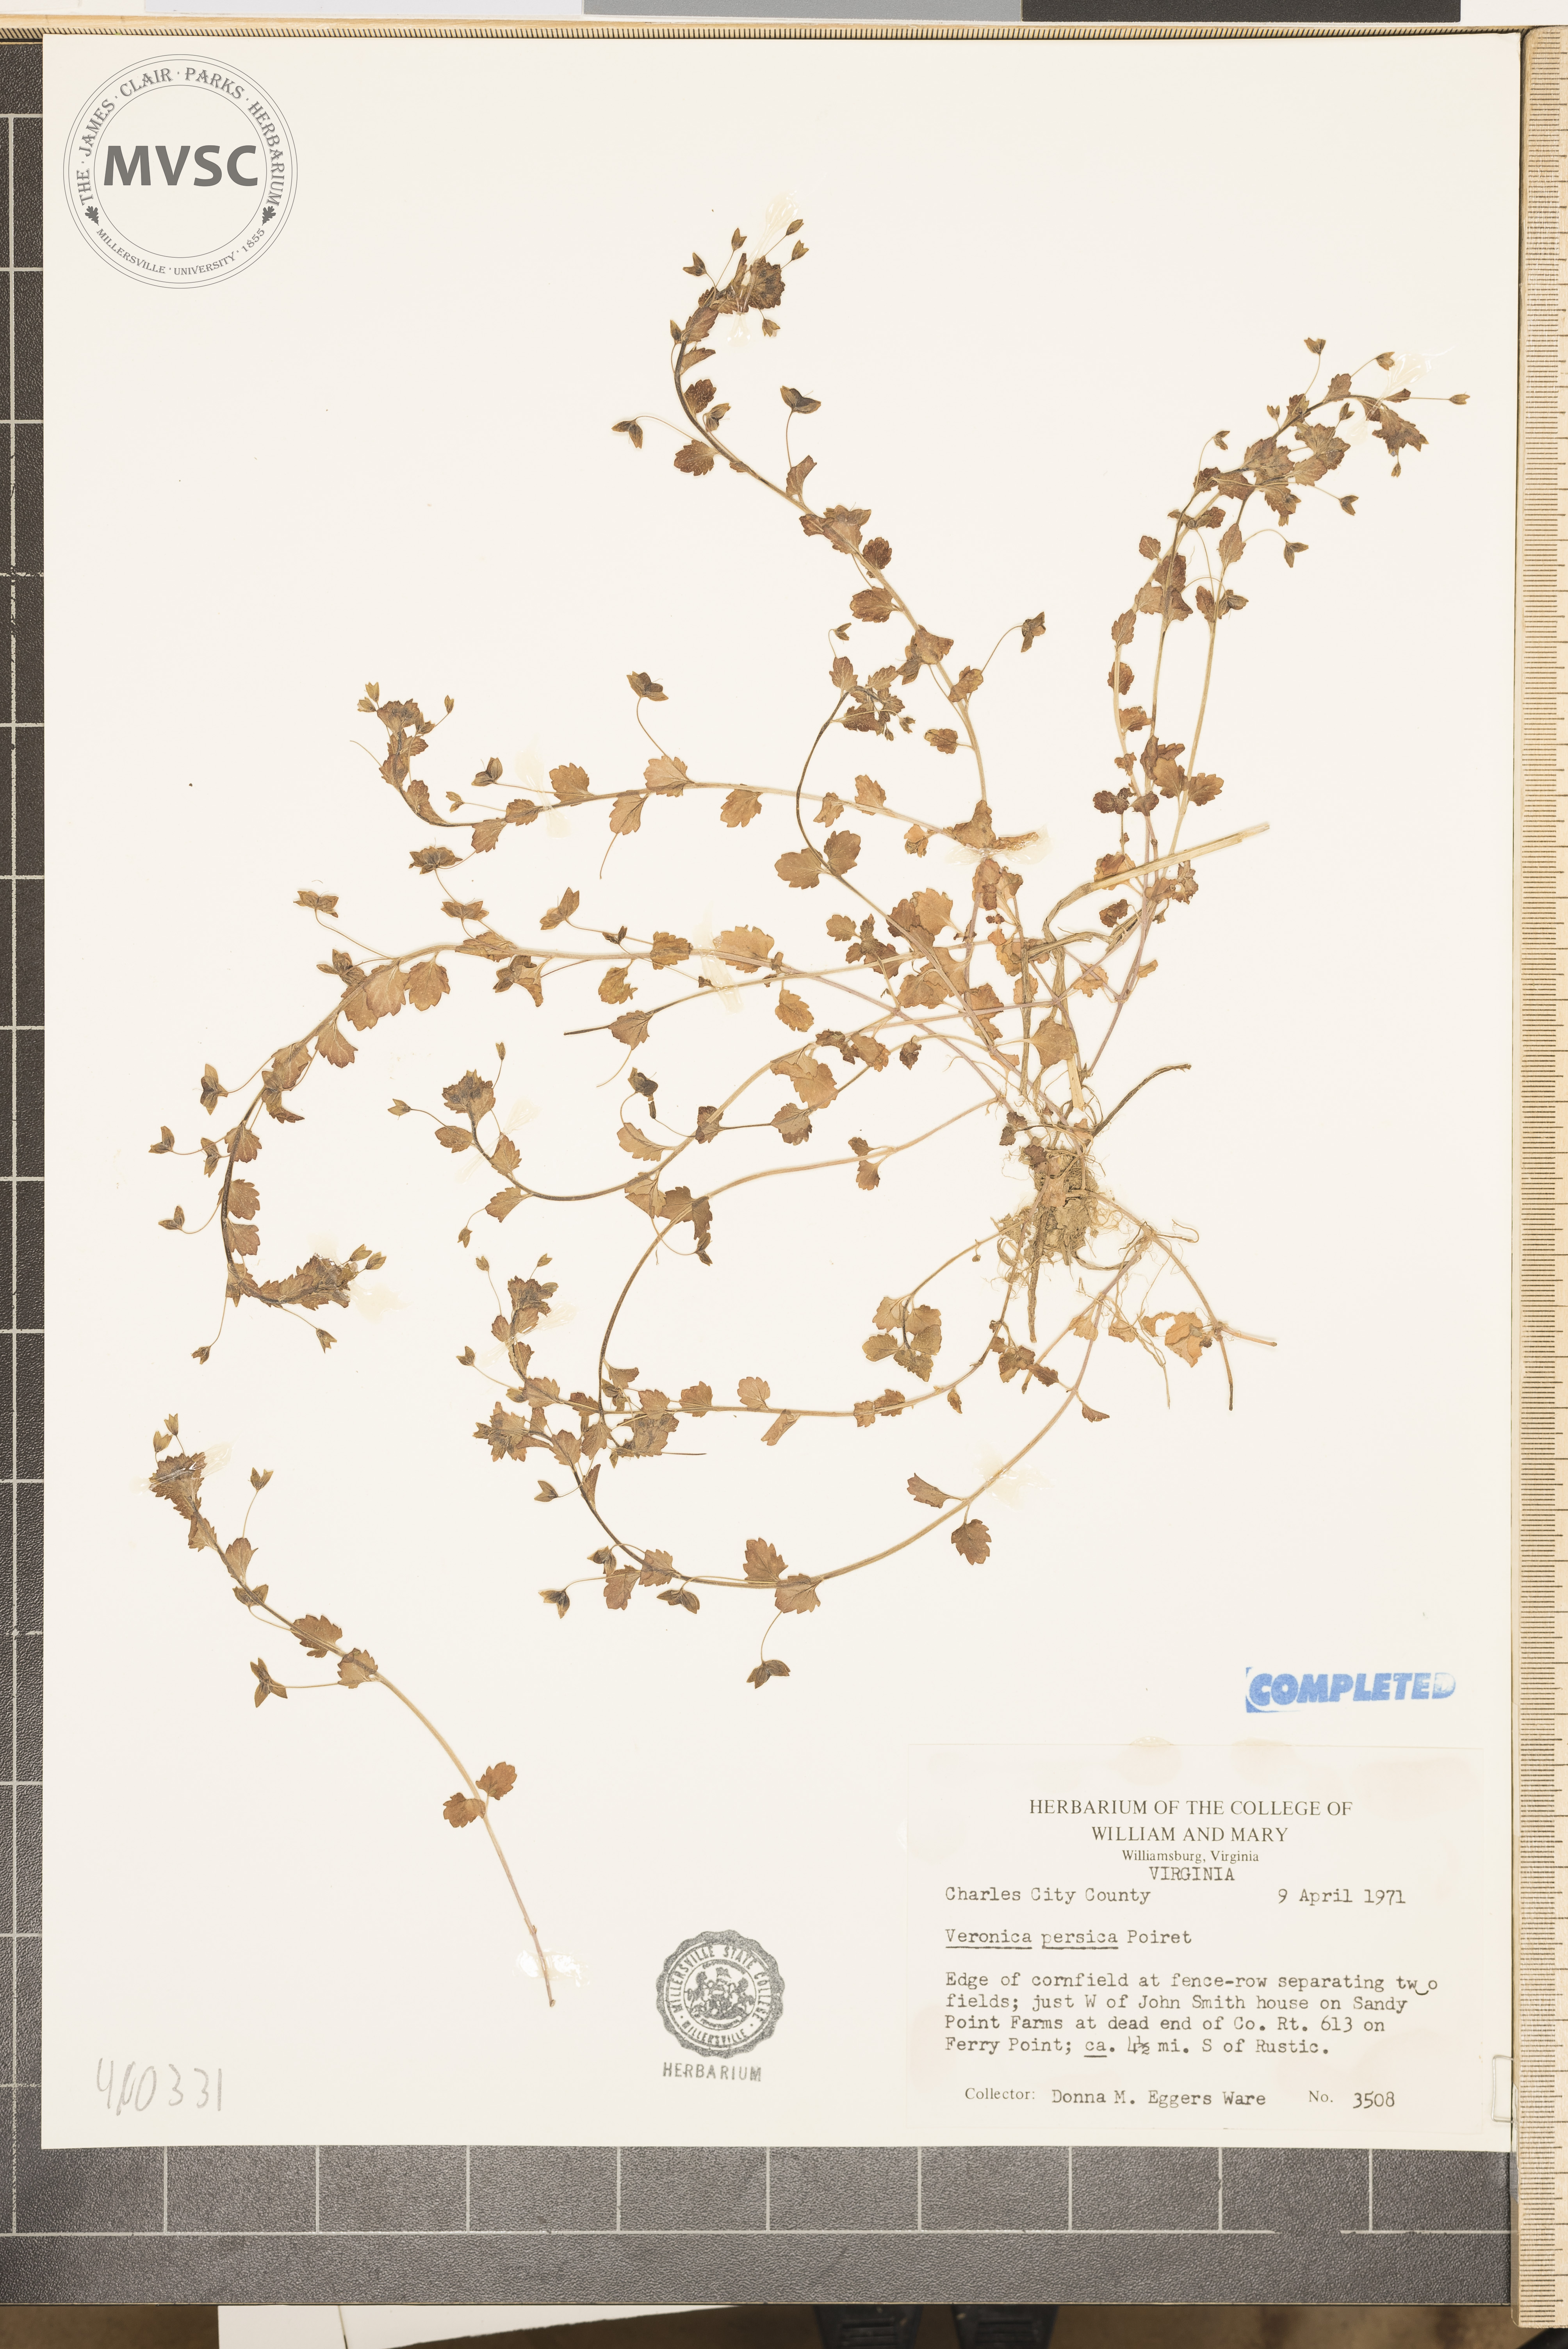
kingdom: Plantae
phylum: Tracheophyta
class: Magnoliopsida
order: Lamiales
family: Plantaginaceae
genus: Veronica
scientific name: Veronica persica
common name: Common field-speedwell
